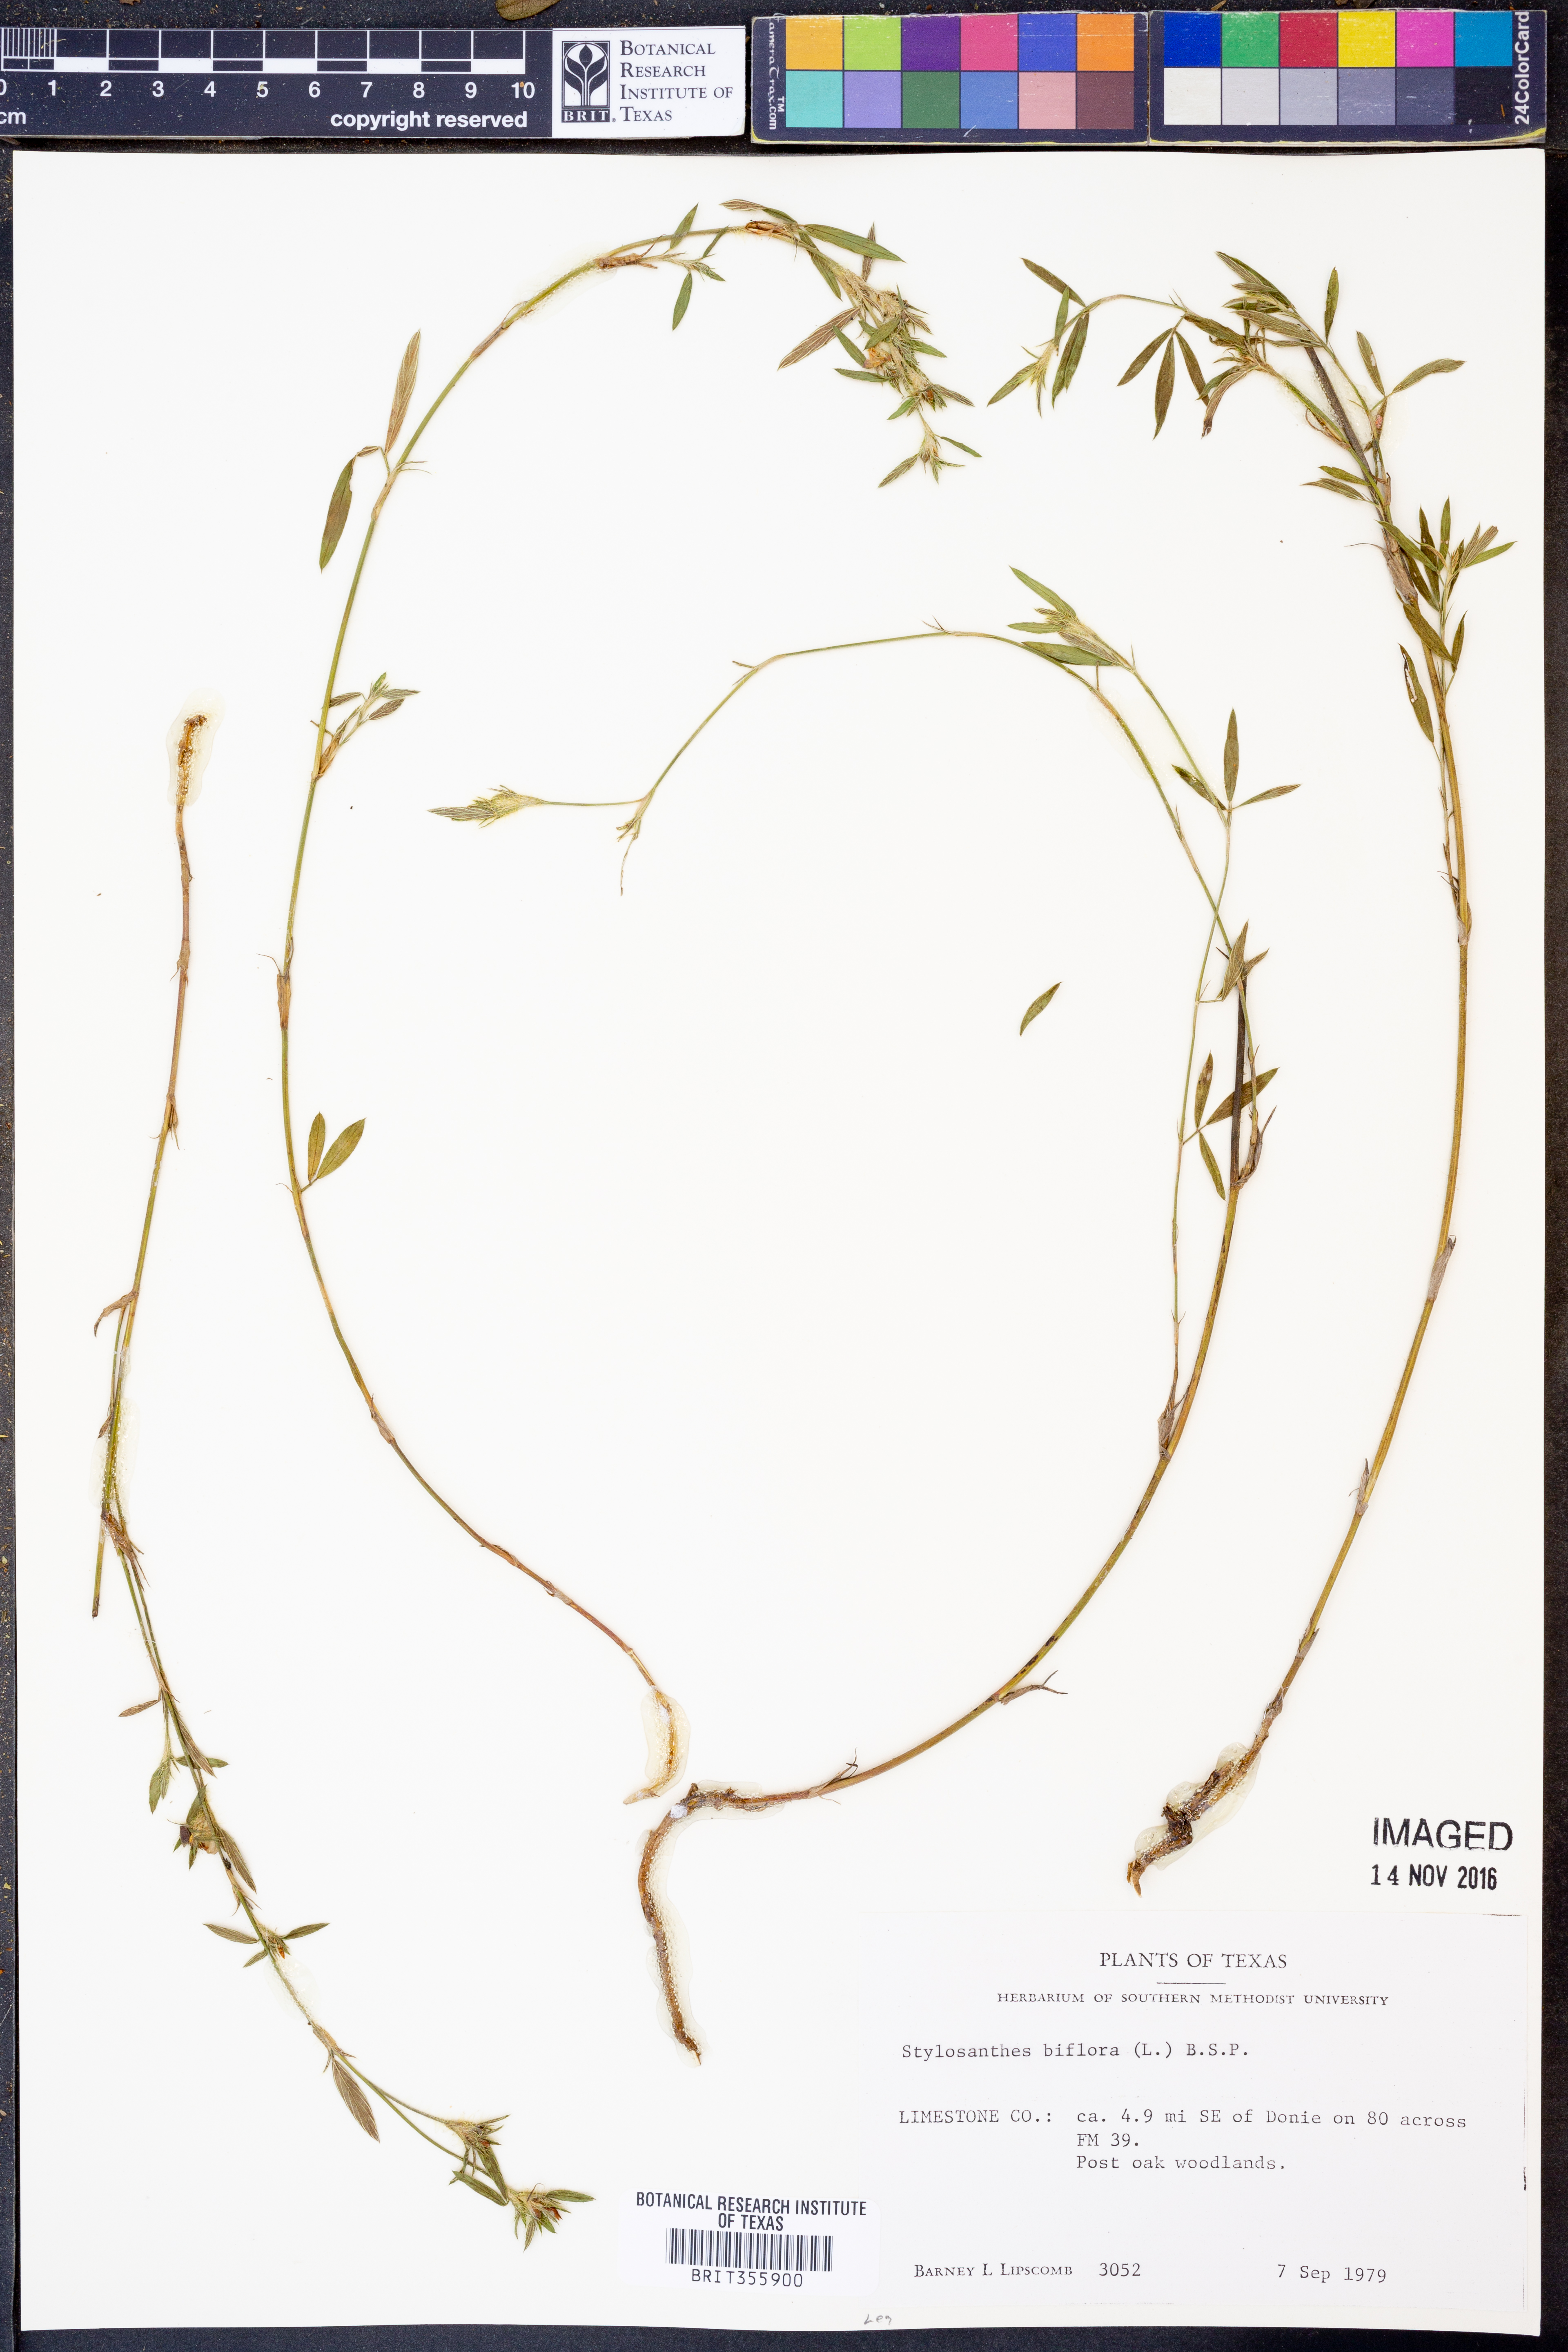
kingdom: Plantae
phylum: Tracheophyta
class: Magnoliopsida
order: Fabales
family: Fabaceae
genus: Stylosanthes
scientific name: Stylosanthes biflora
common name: Two-flower pencil-flower
